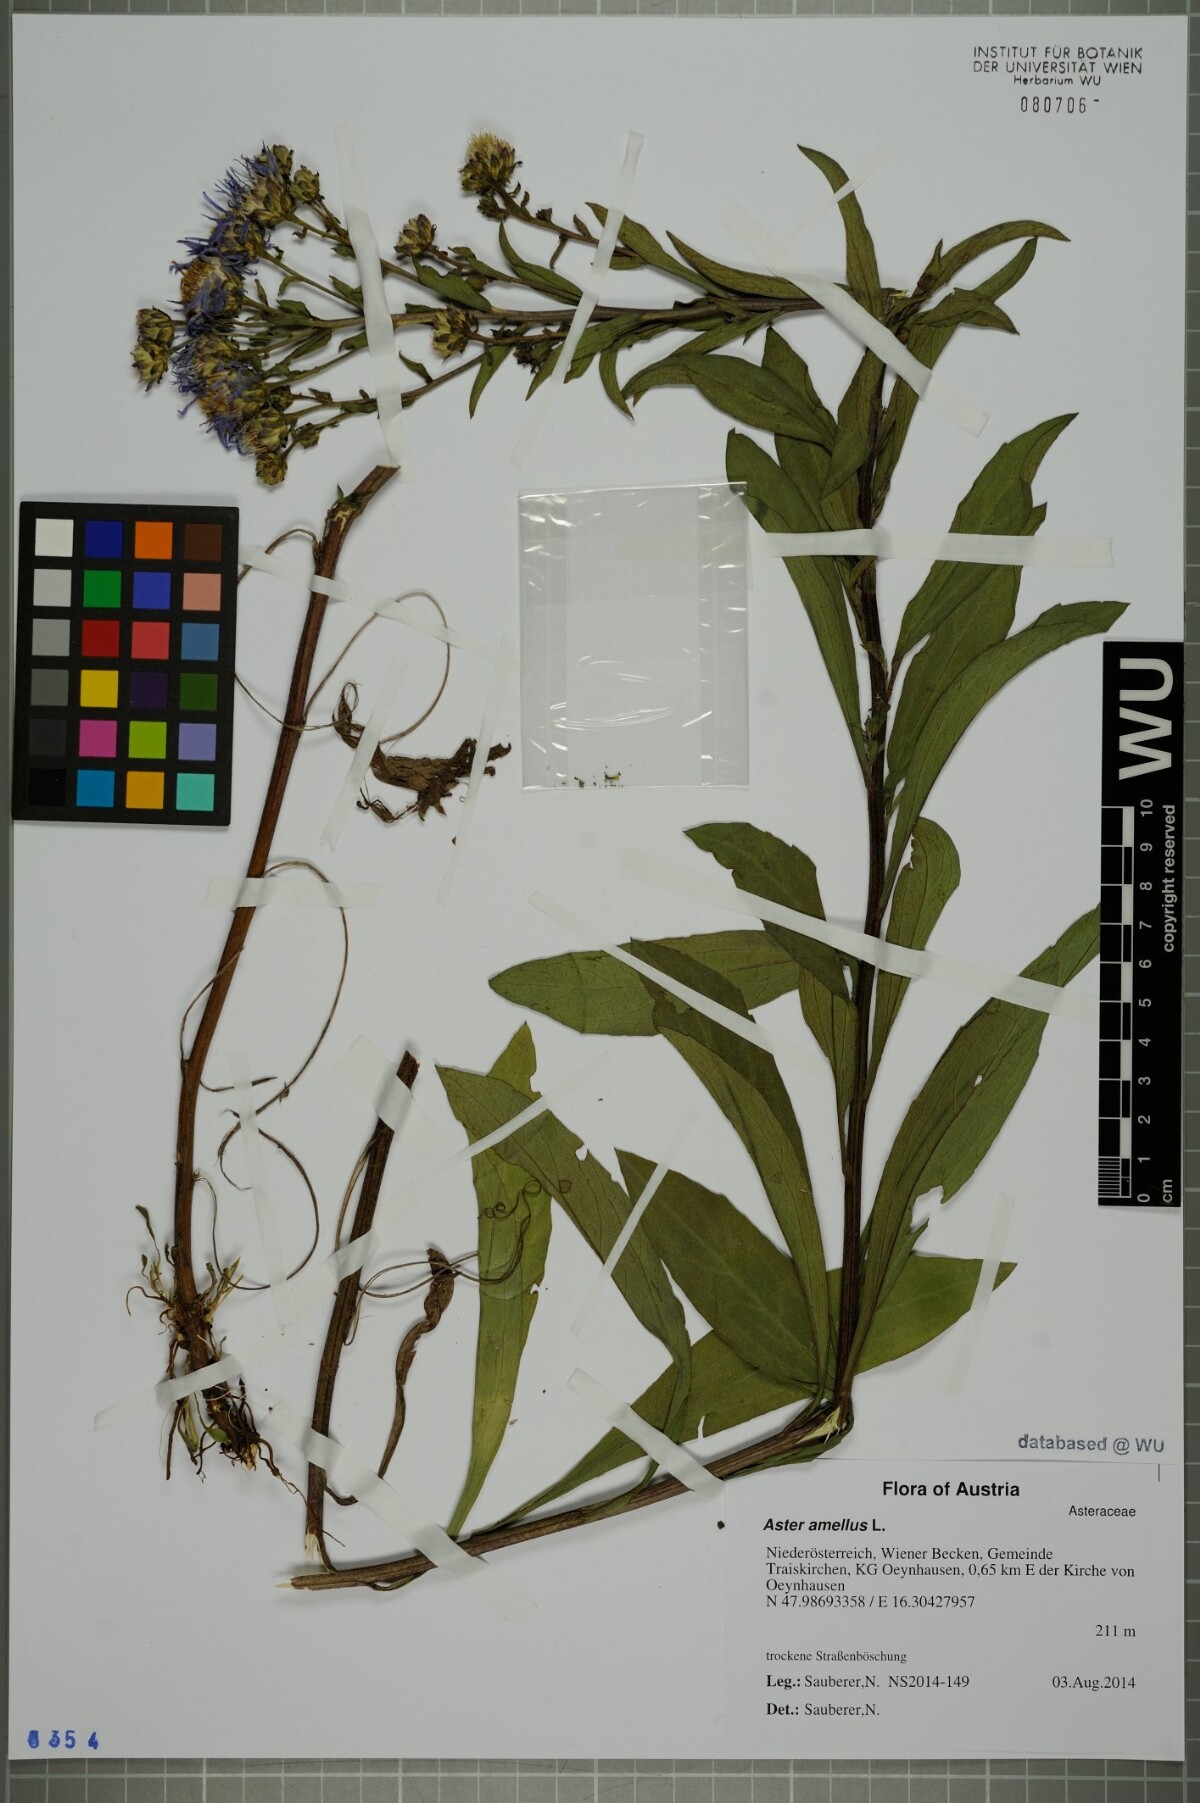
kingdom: Plantae
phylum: Tracheophyta
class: Magnoliopsida
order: Asterales
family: Asteraceae
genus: Aster
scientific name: Aster amellus
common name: European michaelmas daisy
